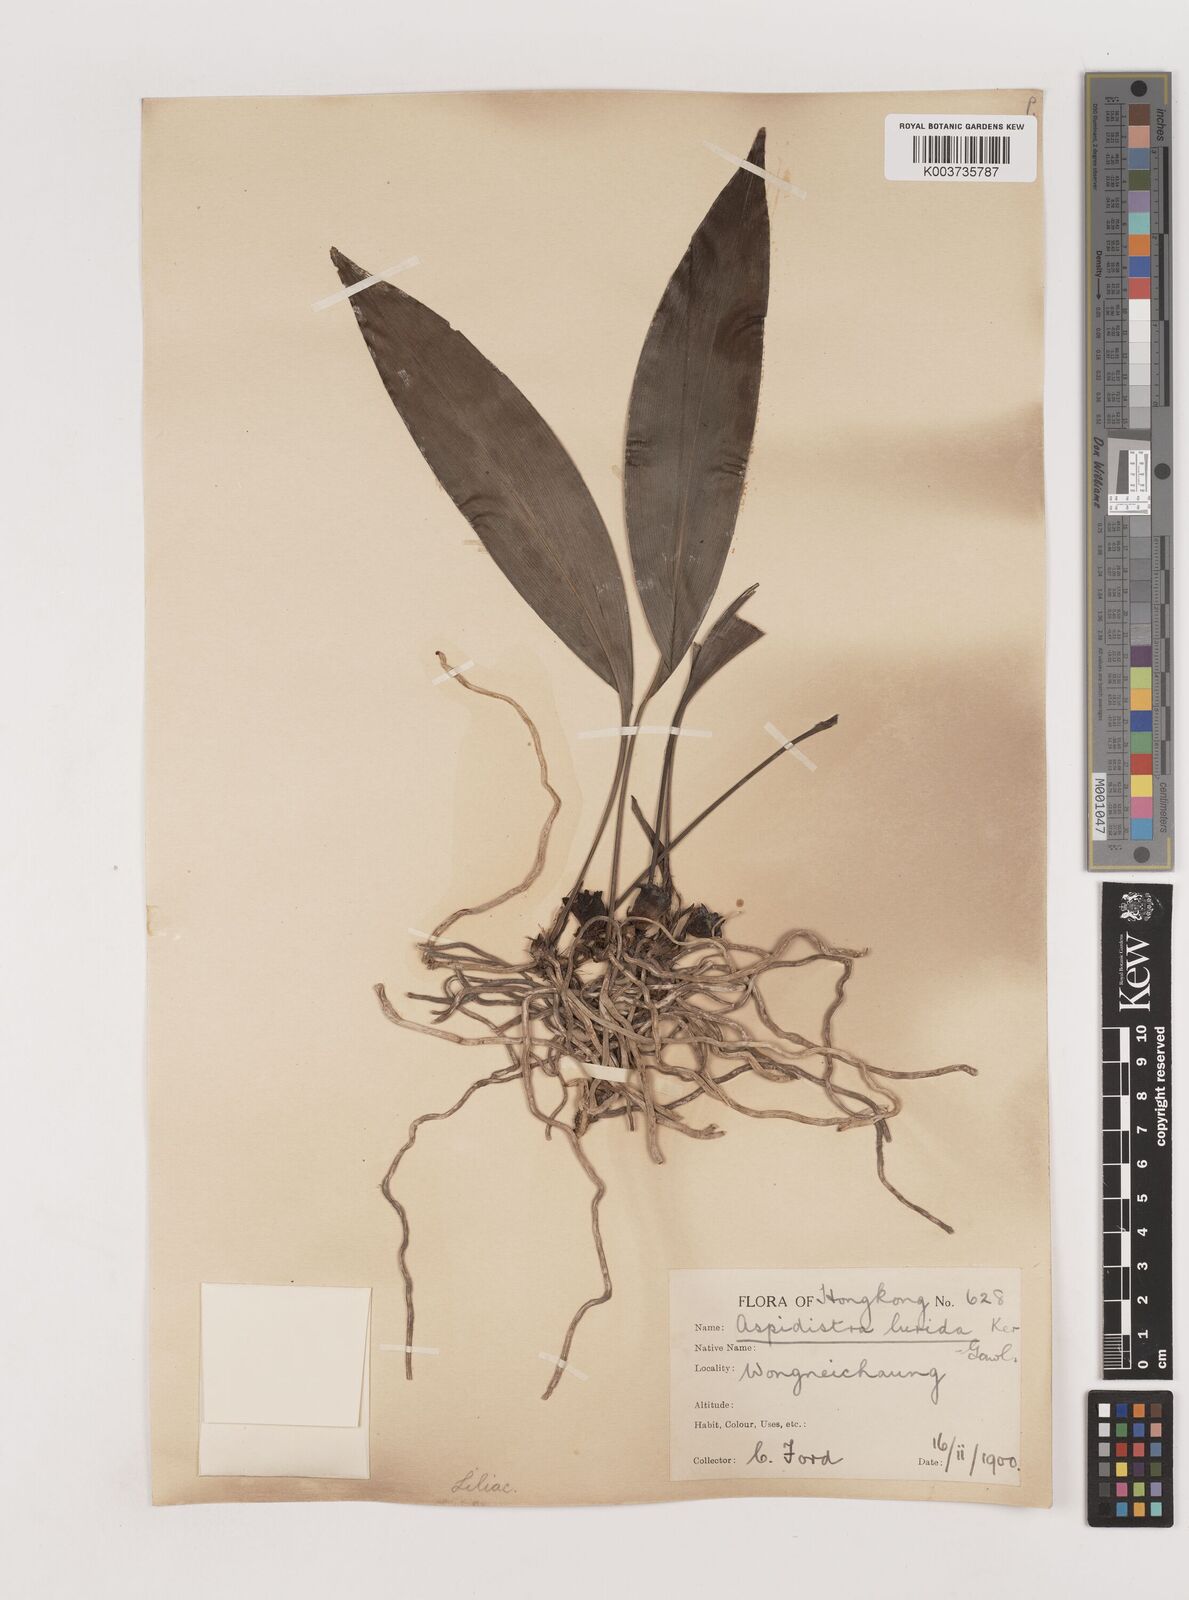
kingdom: Plantae
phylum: Tracheophyta
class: Liliopsida
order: Asparagales
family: Asparagaceae
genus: Aspidistra
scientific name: Aspidistra lurida
